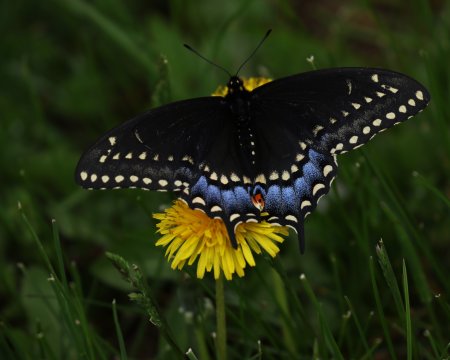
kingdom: Animalia
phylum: Arthropoda
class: Insecta
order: Lepidoptera
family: Papilionidae
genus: Papilio
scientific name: Papilio polyxenes
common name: Black Swallowtail
